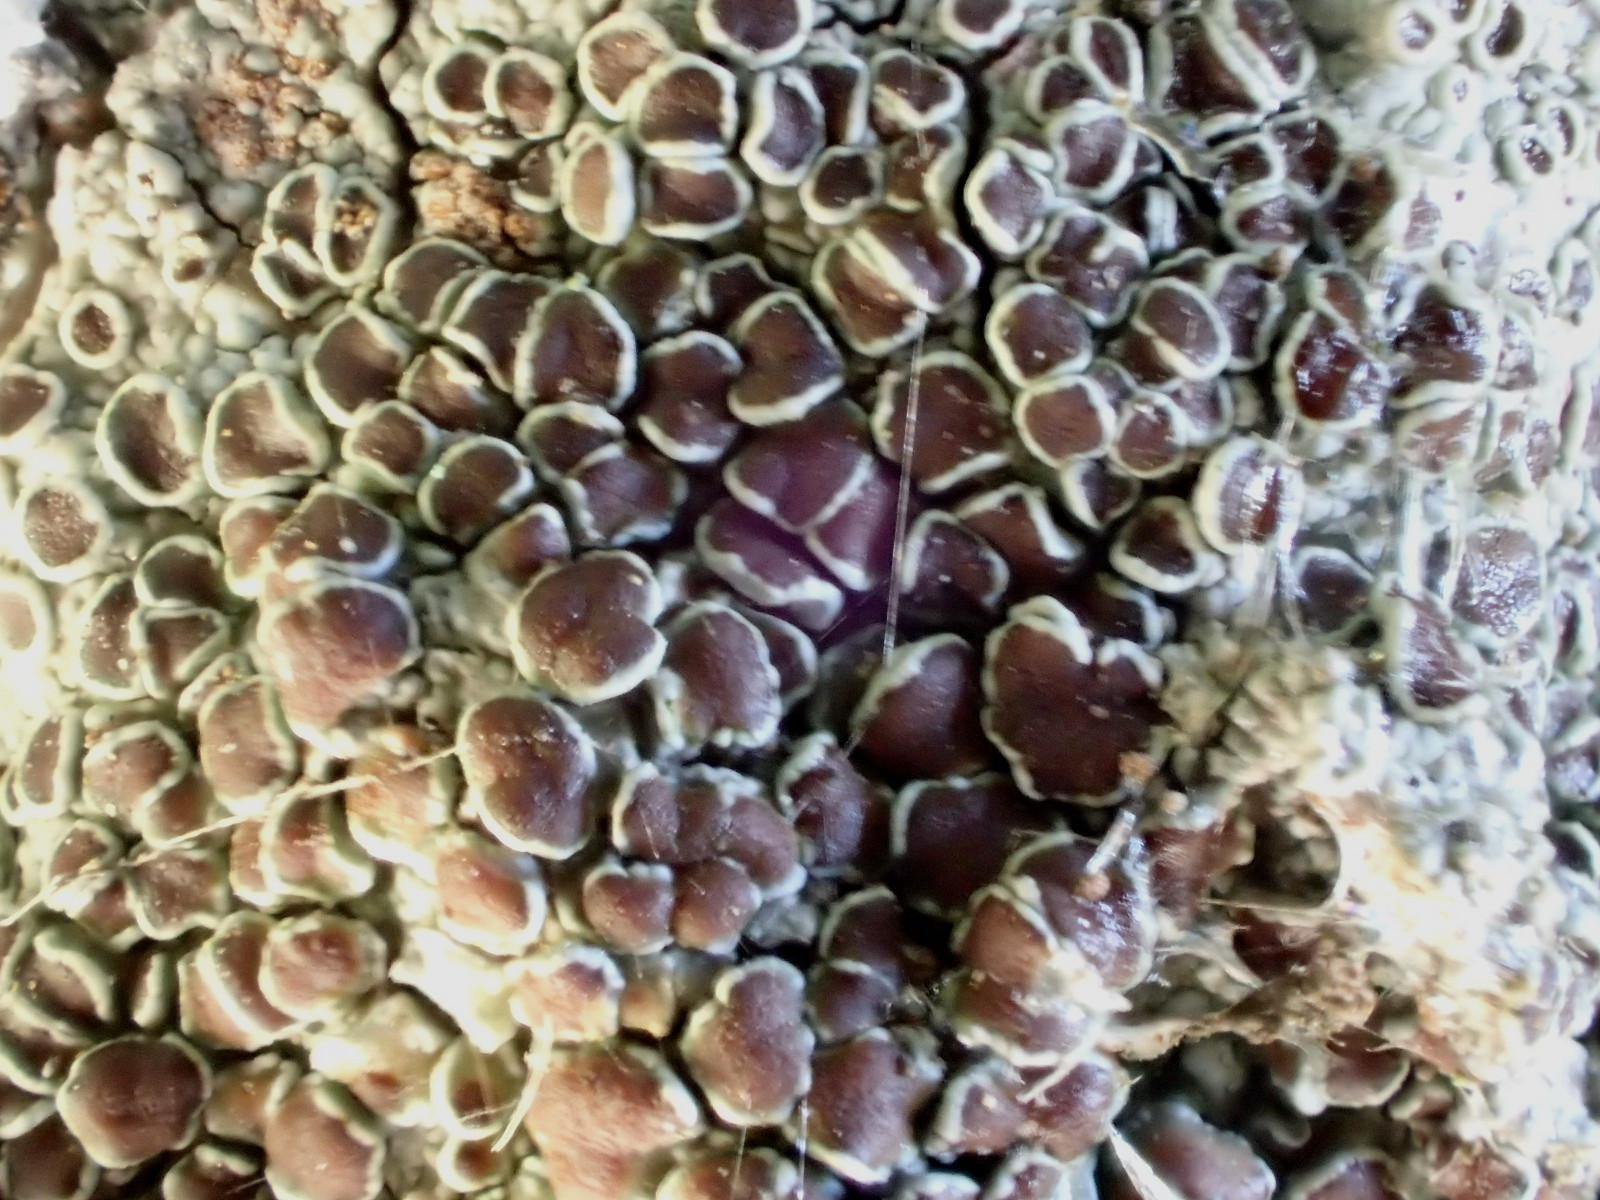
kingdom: Fungi
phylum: Ascomycota
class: Lecanoromycetes
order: Lecanorales
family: Lecanoraceae
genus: Lecanora
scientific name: Lecanora argentata
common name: sølv-kantskivelav
